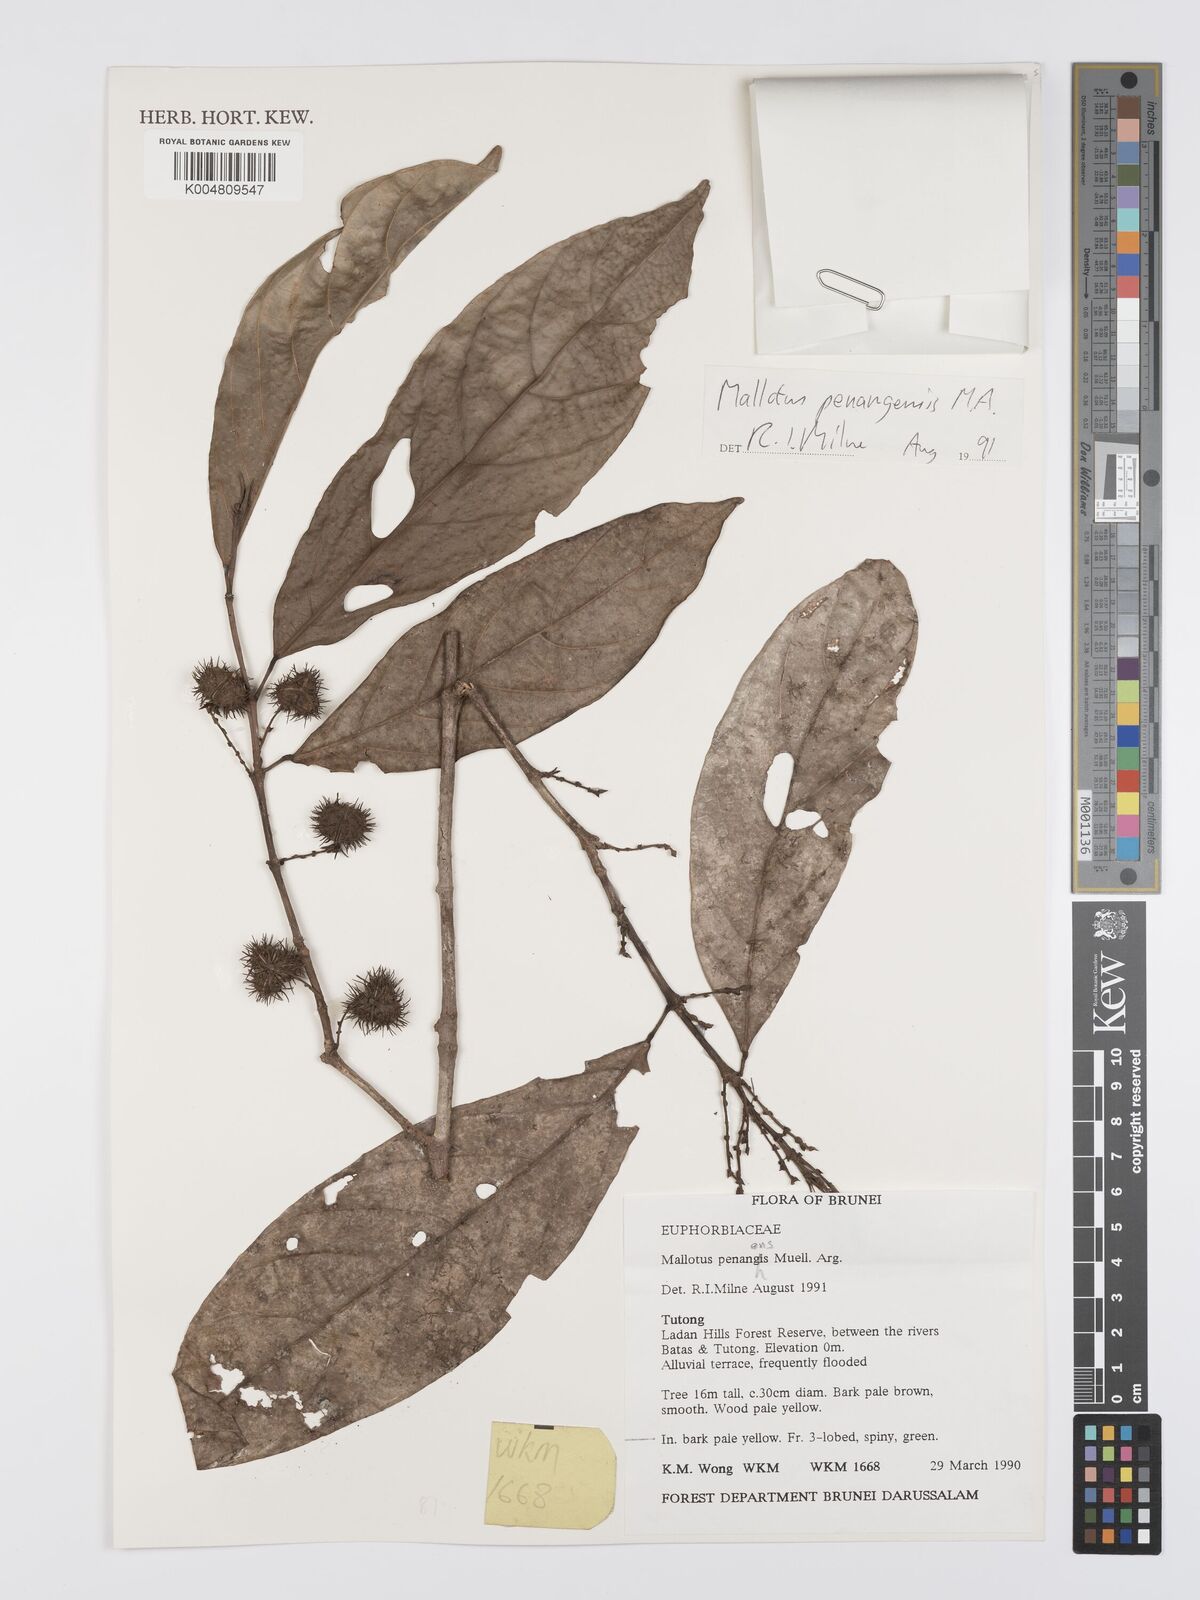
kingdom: Plantae
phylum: Tracheophyta
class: Magnoliopsida
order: Malpighiales
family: Euphorbiaceae
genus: Hancea
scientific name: Hancea penangensis
